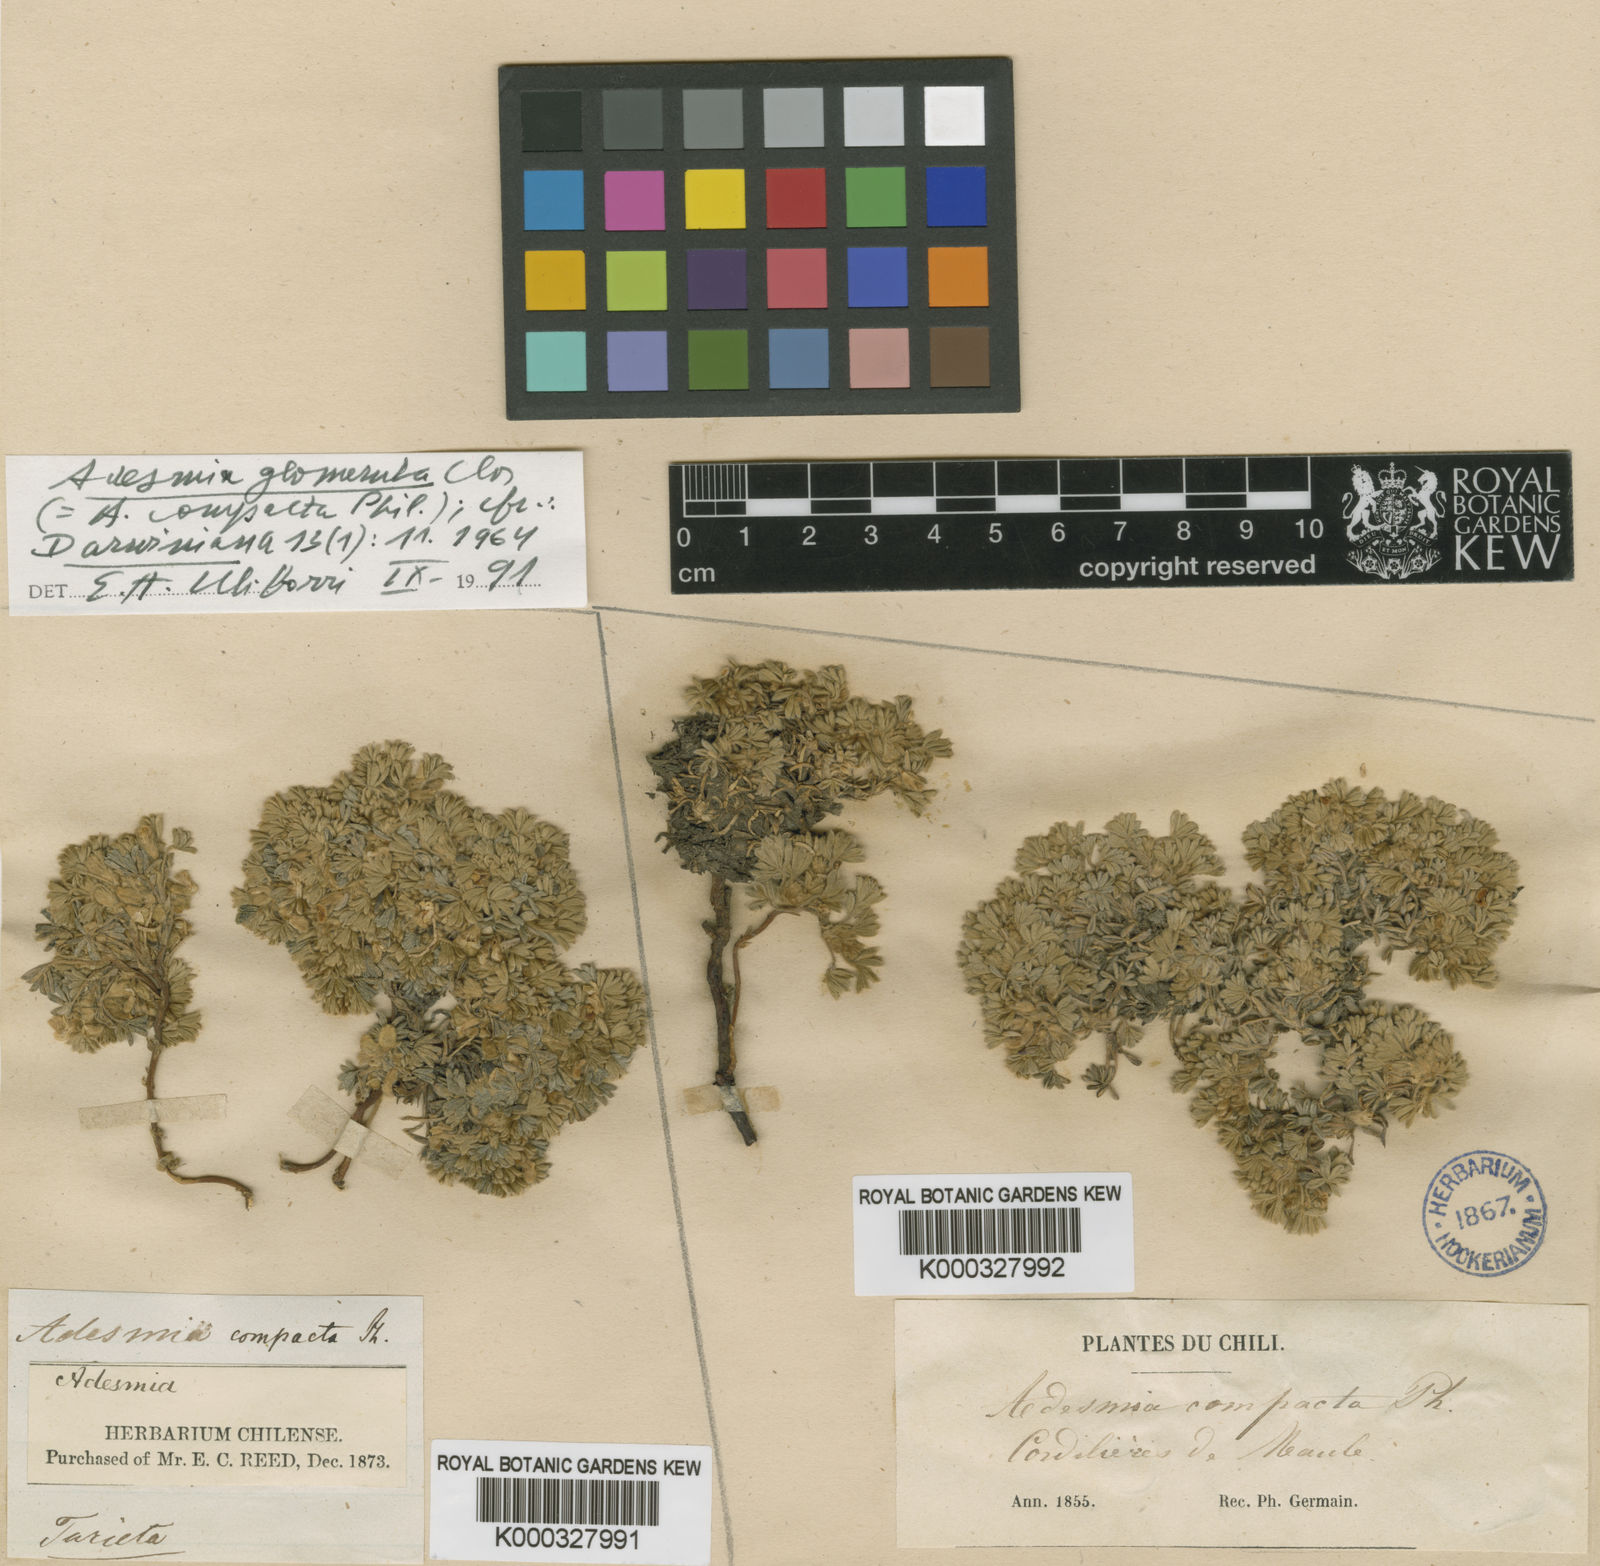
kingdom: Plantae
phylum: Tracheophyta
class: Magnoliopsida
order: Fabales
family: Fabaceae
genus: Adesmia
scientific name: Adesmia glomerula
